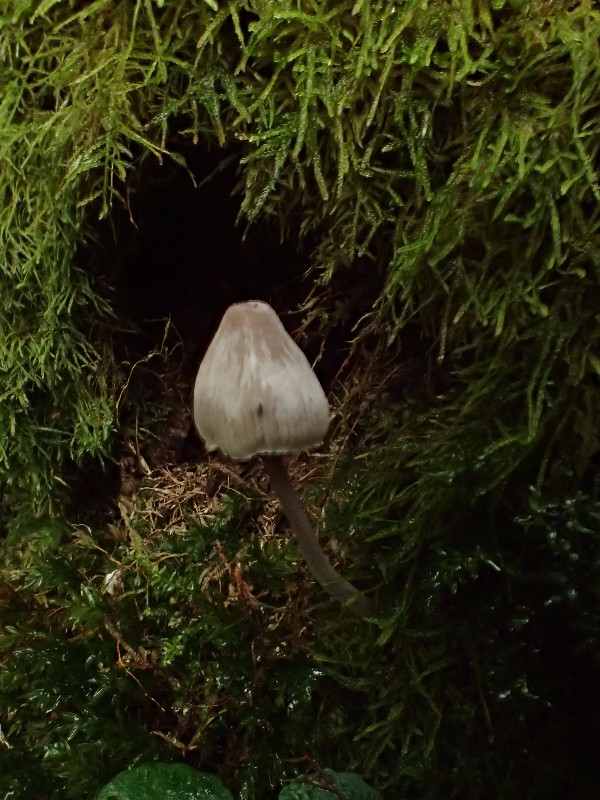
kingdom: Fungi
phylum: Basidiomycota
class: Agaricomycetes
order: Agaricales
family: Mycenaceae
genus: Mycena
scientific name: Mycena polygramma
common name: mangestribet huesvamp
